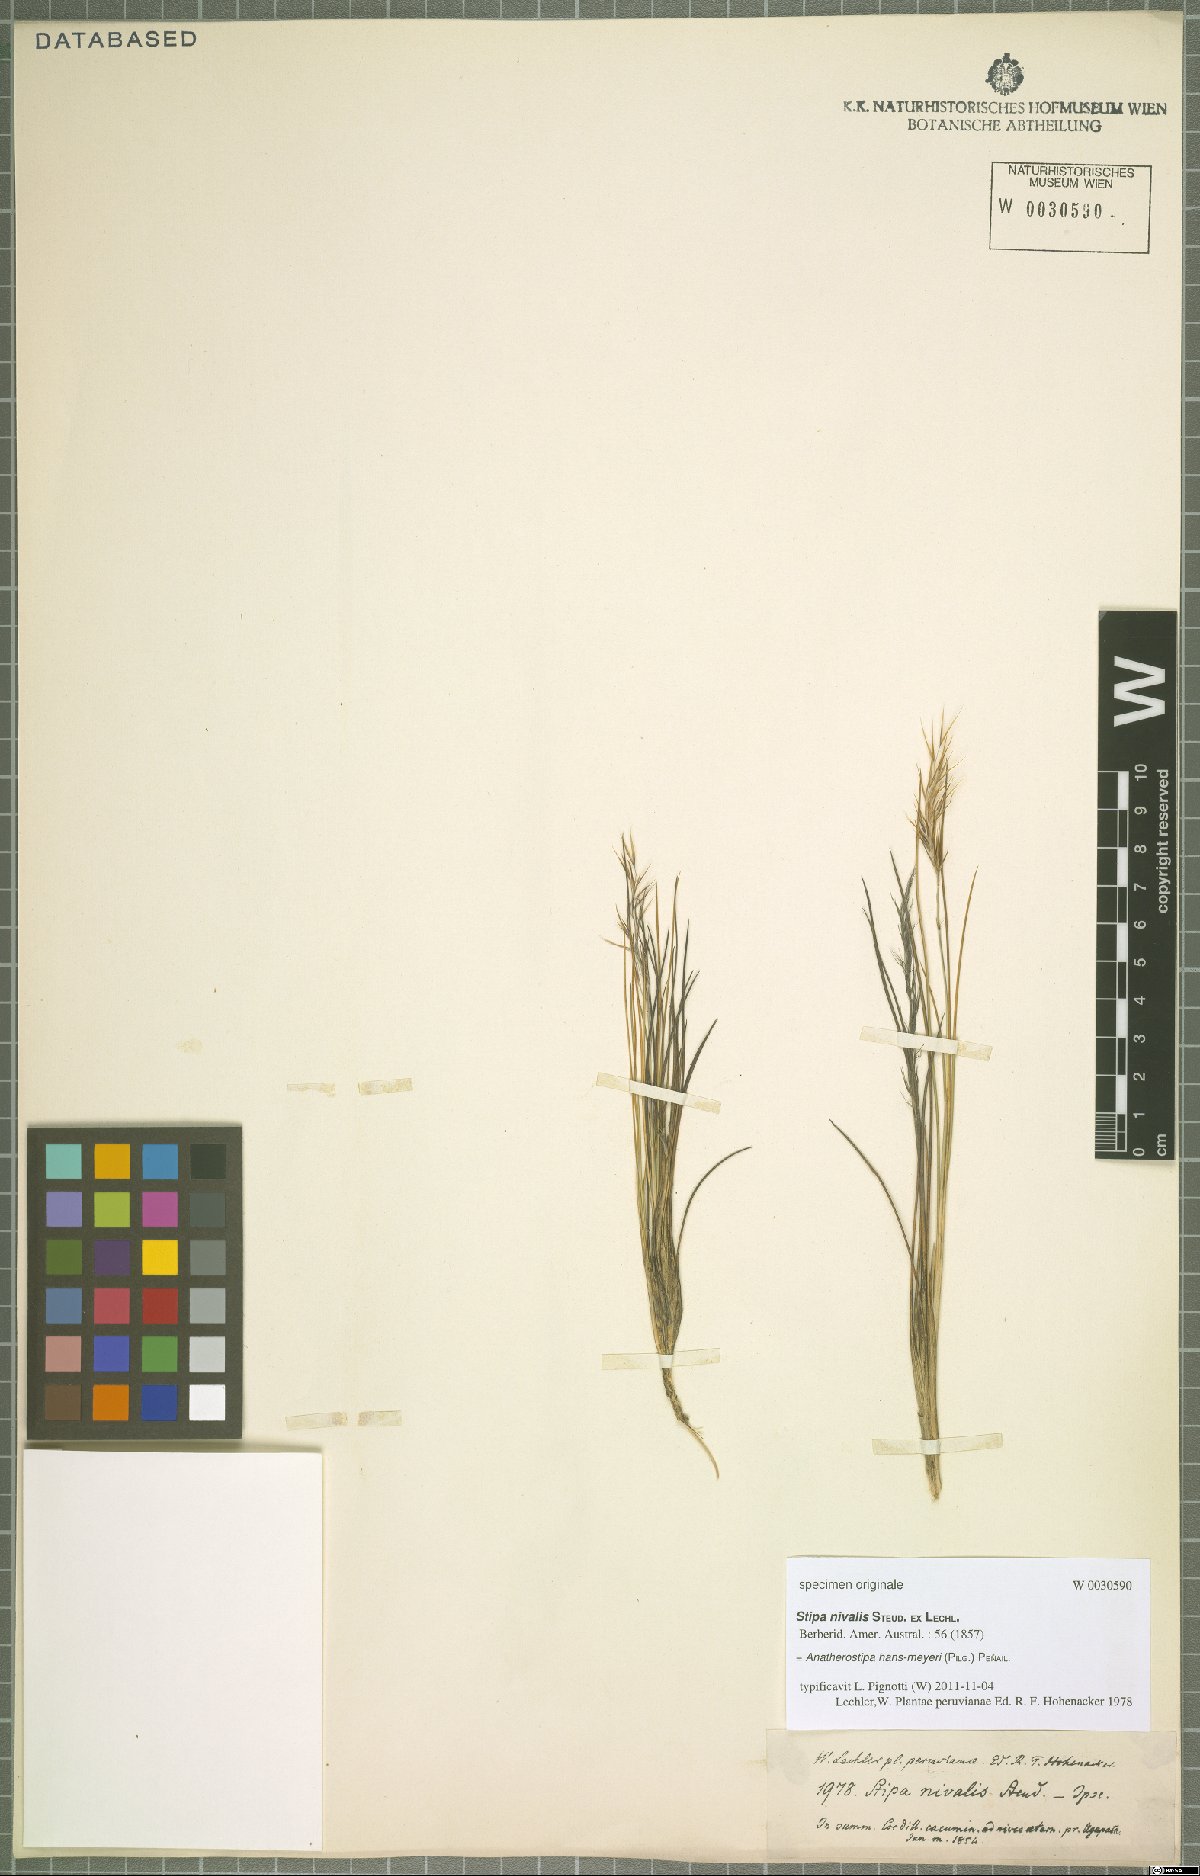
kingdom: Plantae
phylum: Tracheophyta
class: Liliopsida
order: Poales
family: Poaceae
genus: Stipa
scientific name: Stipa hans-meyeri
